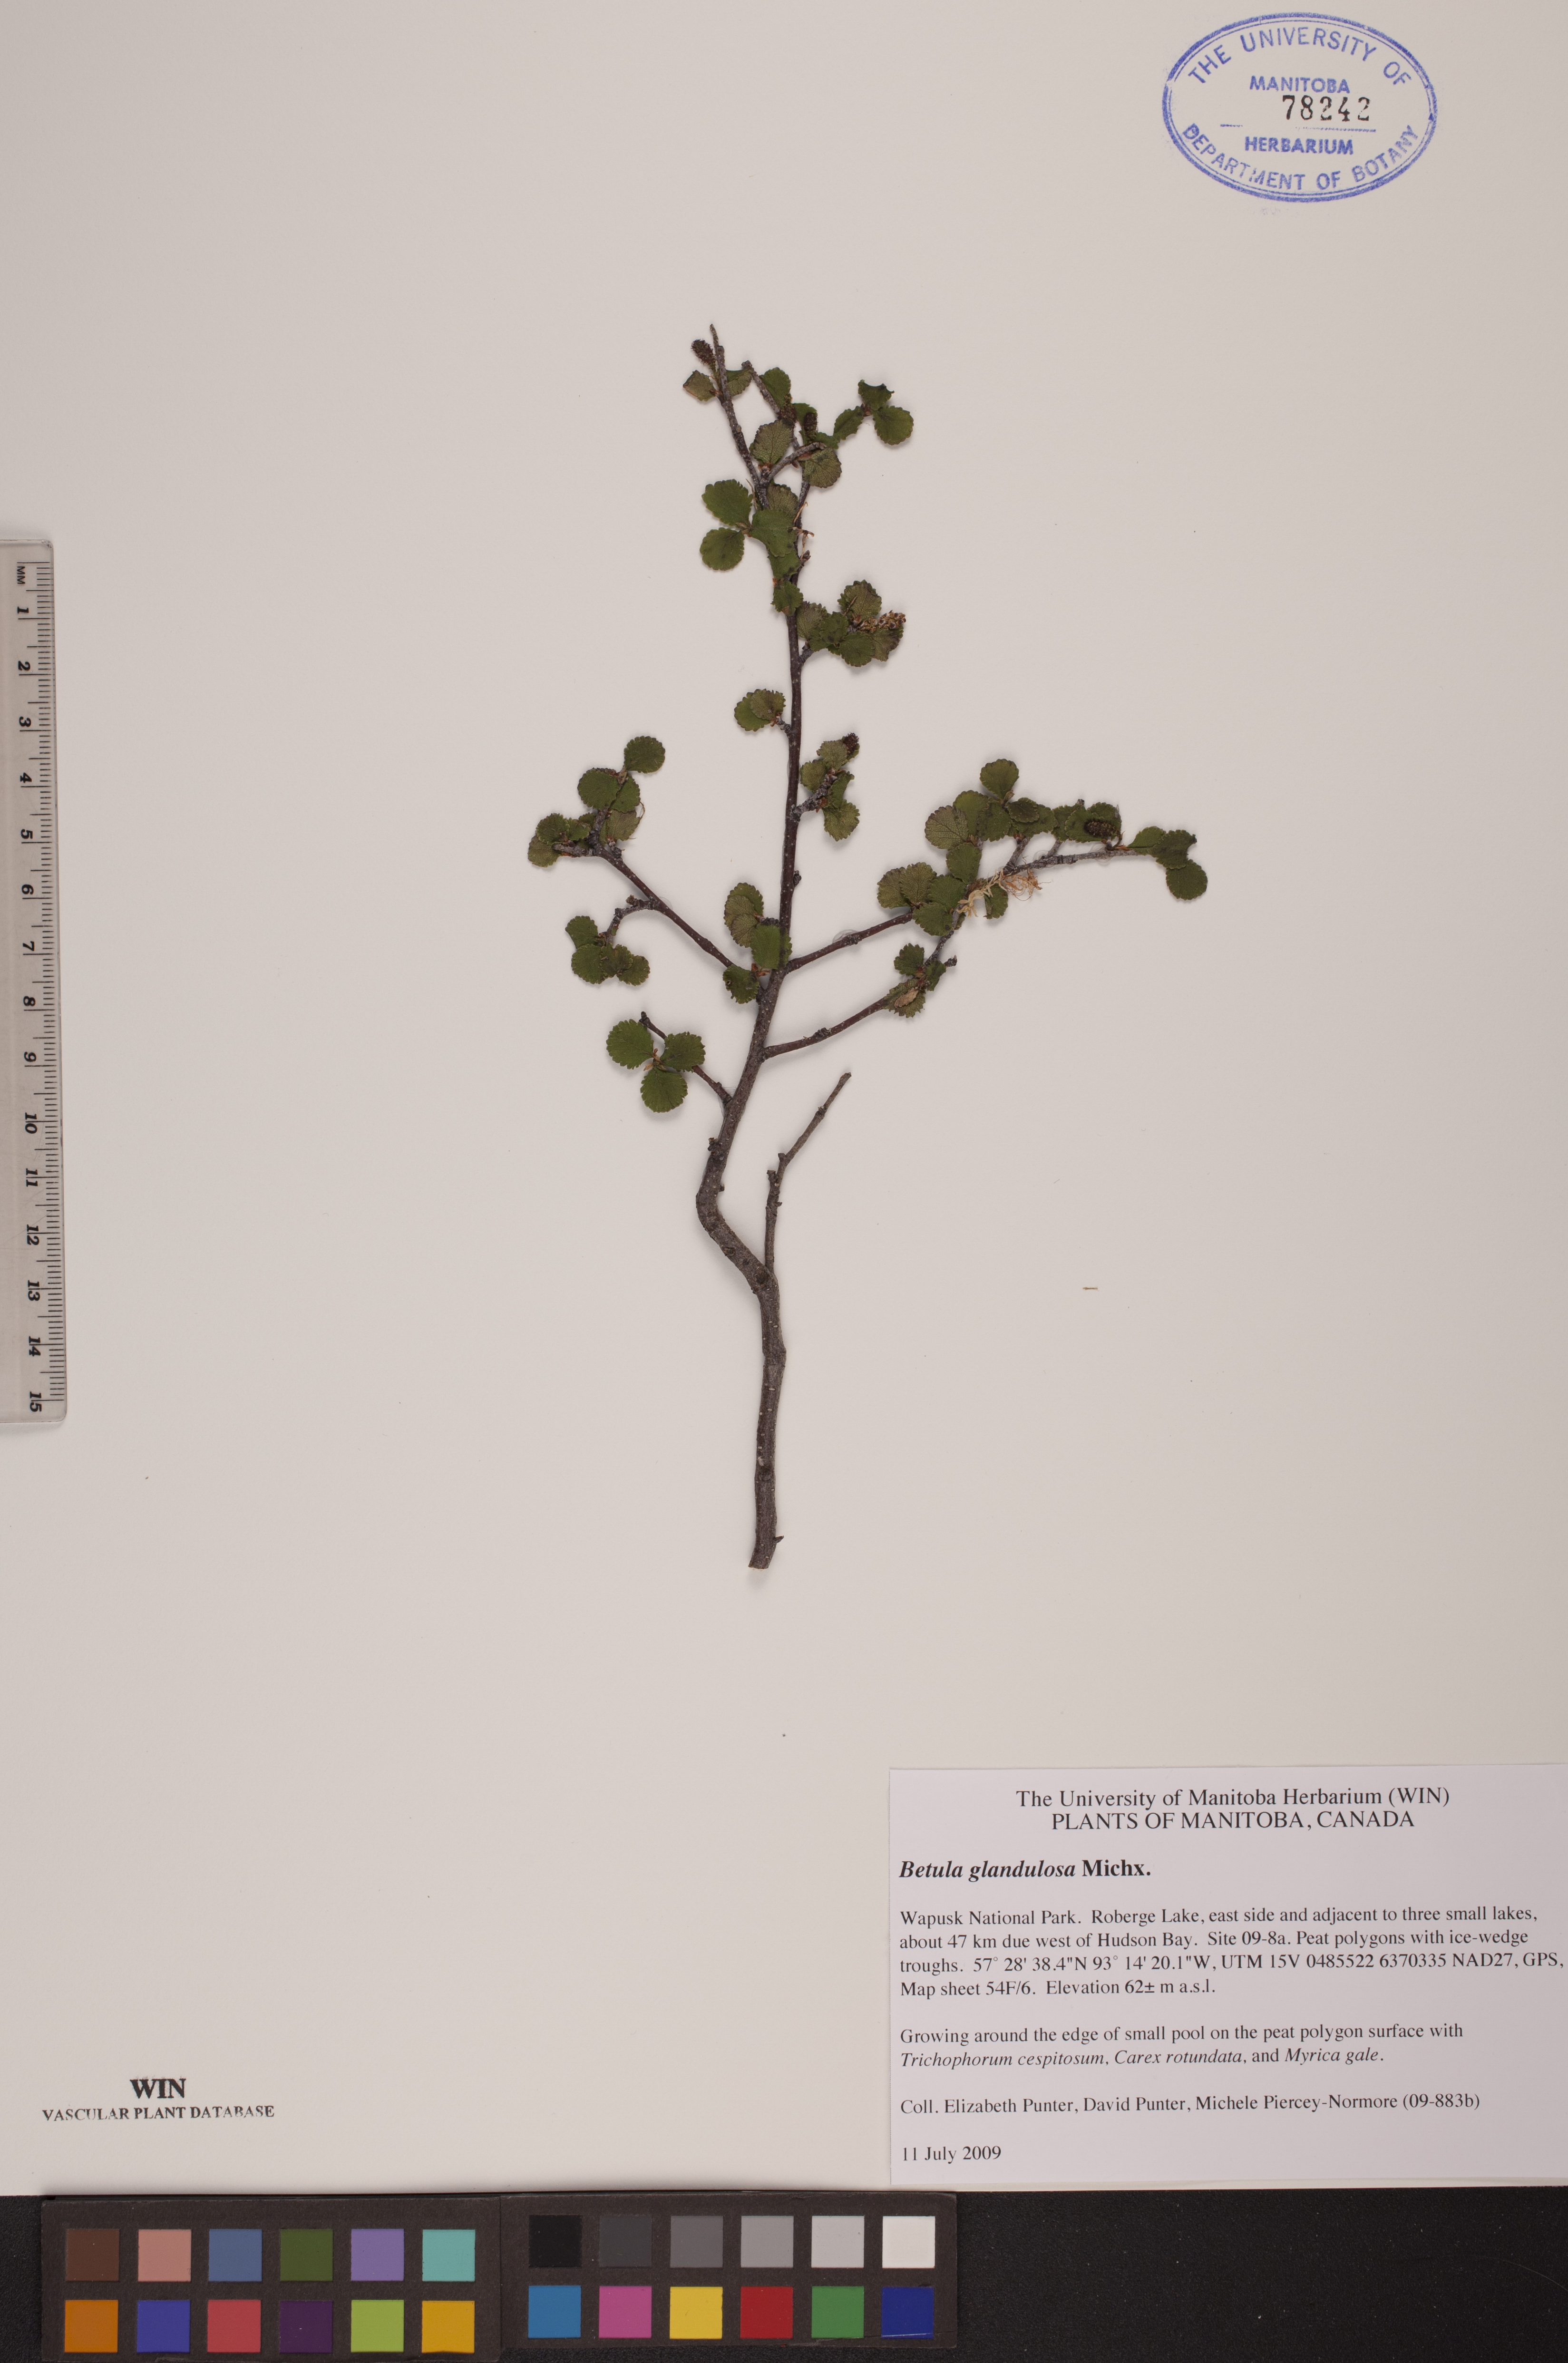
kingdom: Plantae
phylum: Tracheophyta
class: Magnoliopsida
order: Fagales
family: Betulaceae
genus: Betula
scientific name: Betula glandulosa
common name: Dwarf birch
